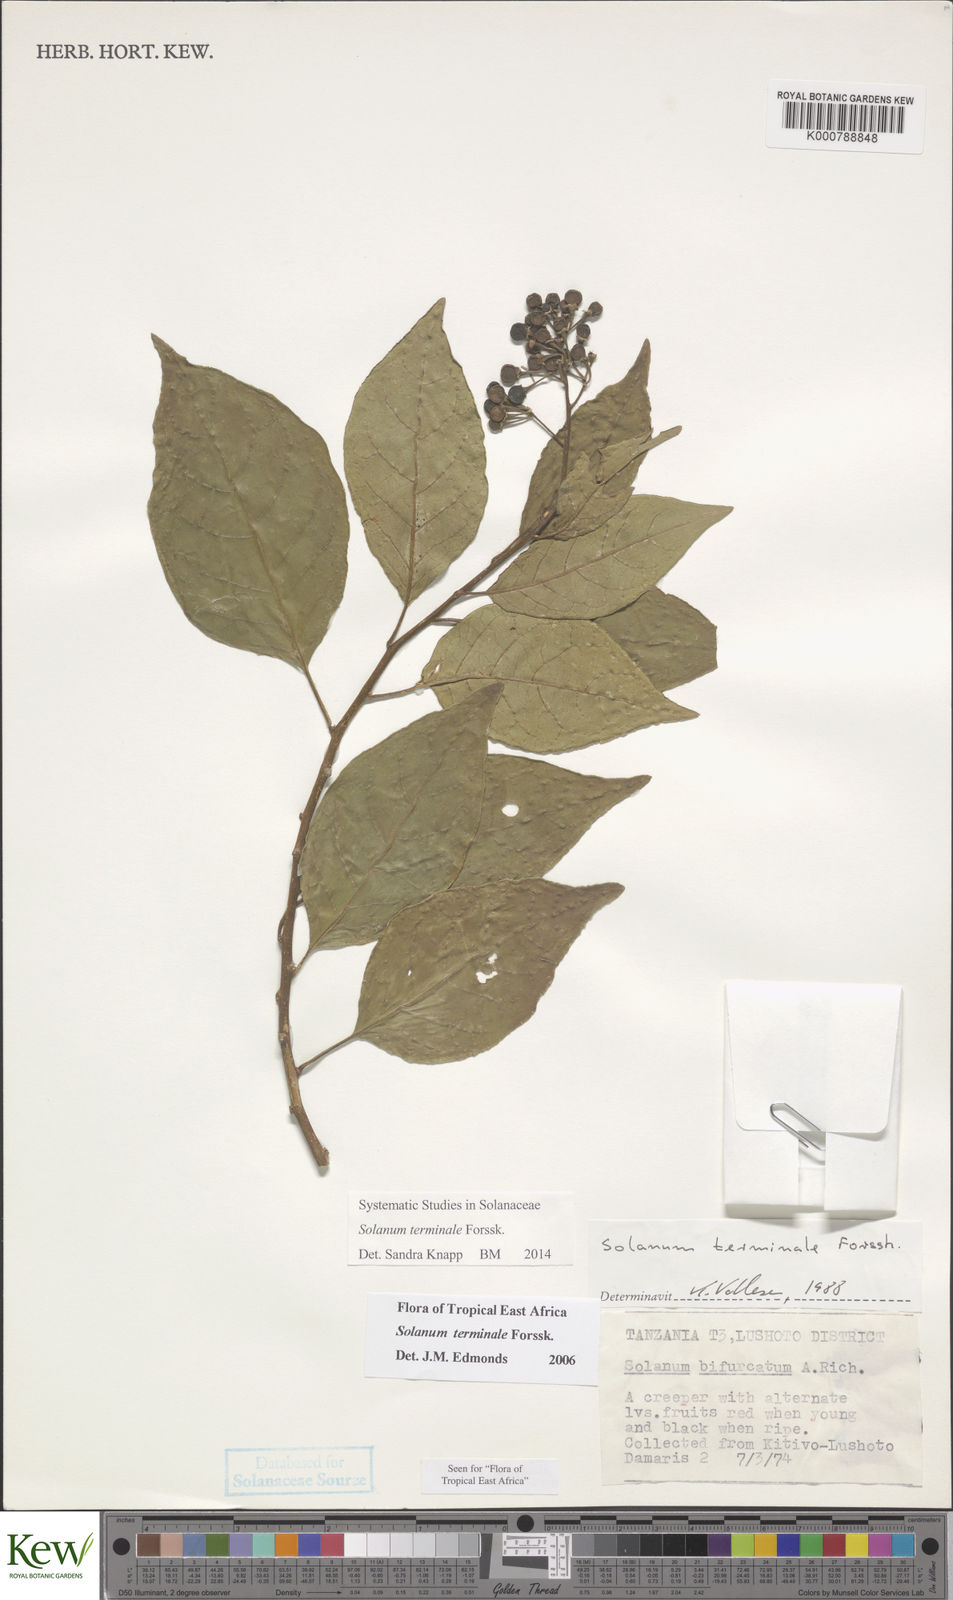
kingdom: Plantae
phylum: Tracheophyta
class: Magnoliopsida
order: Solanales
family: Solanaceae
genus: Solanum
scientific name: Solanum terminale
